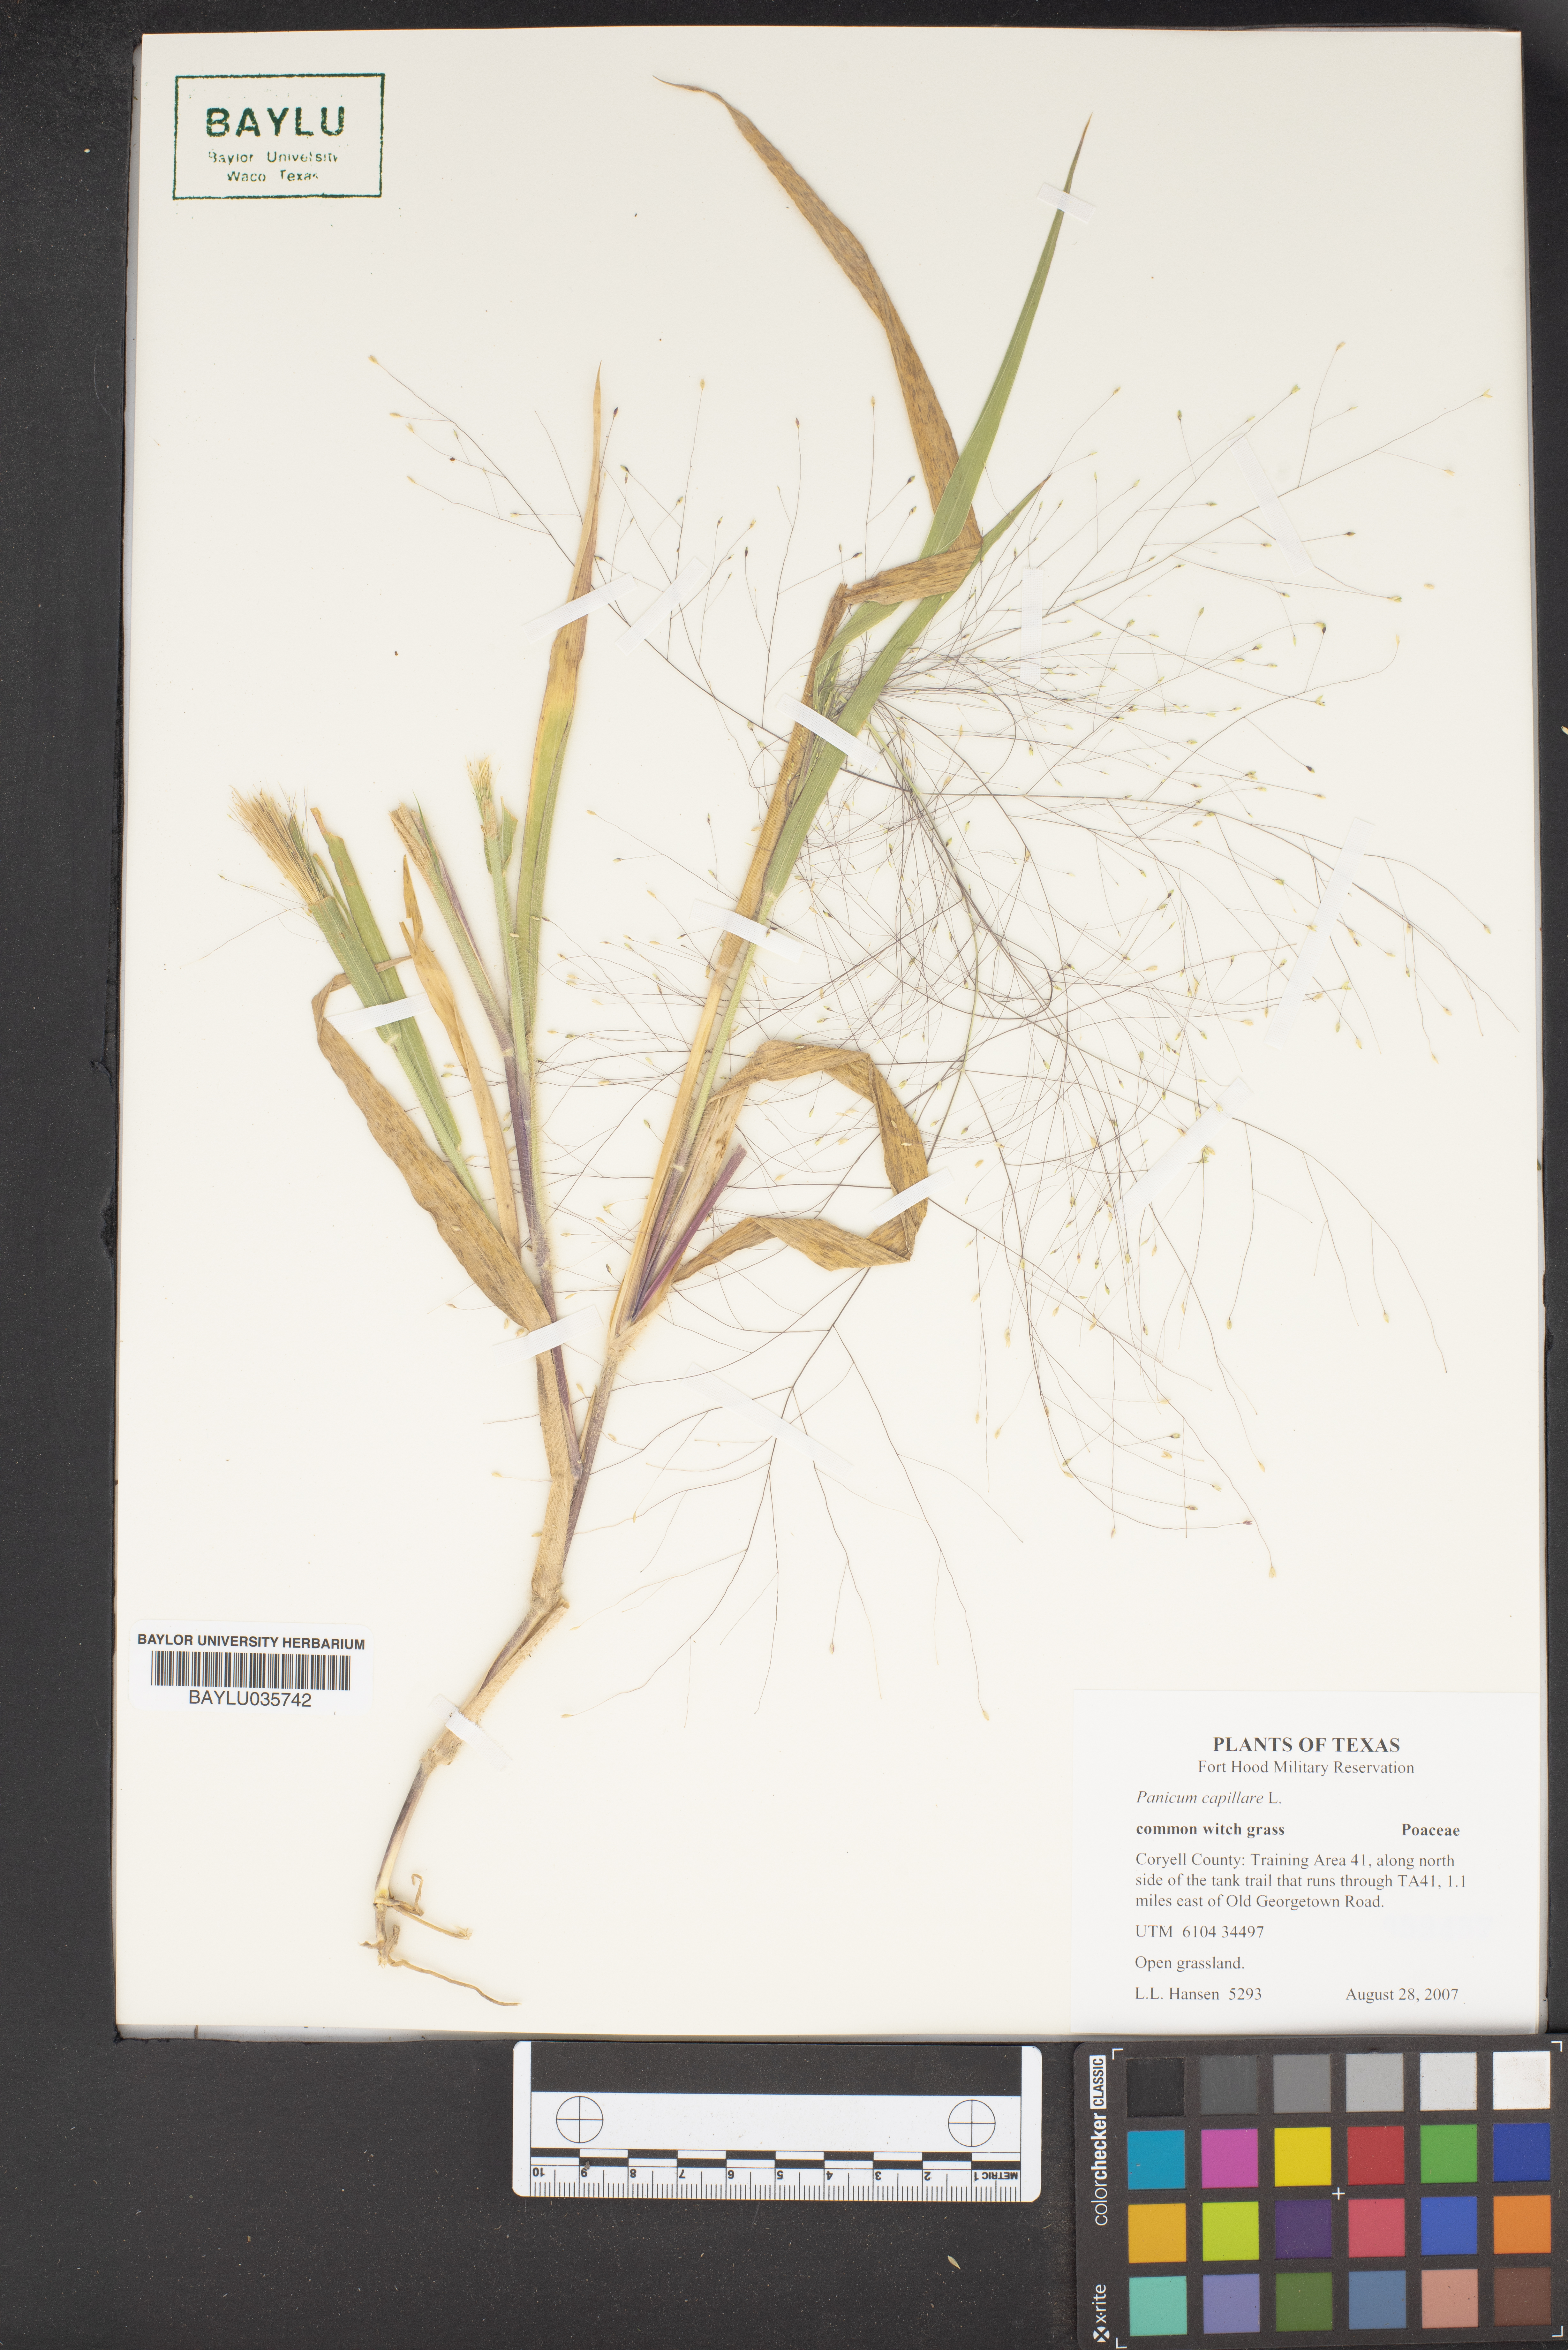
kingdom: Plantae
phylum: Tracheophyta
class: Liliopsida
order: Poales
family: Poaceae
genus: Panicum
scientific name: Panicum capillare
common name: Witch-grass
